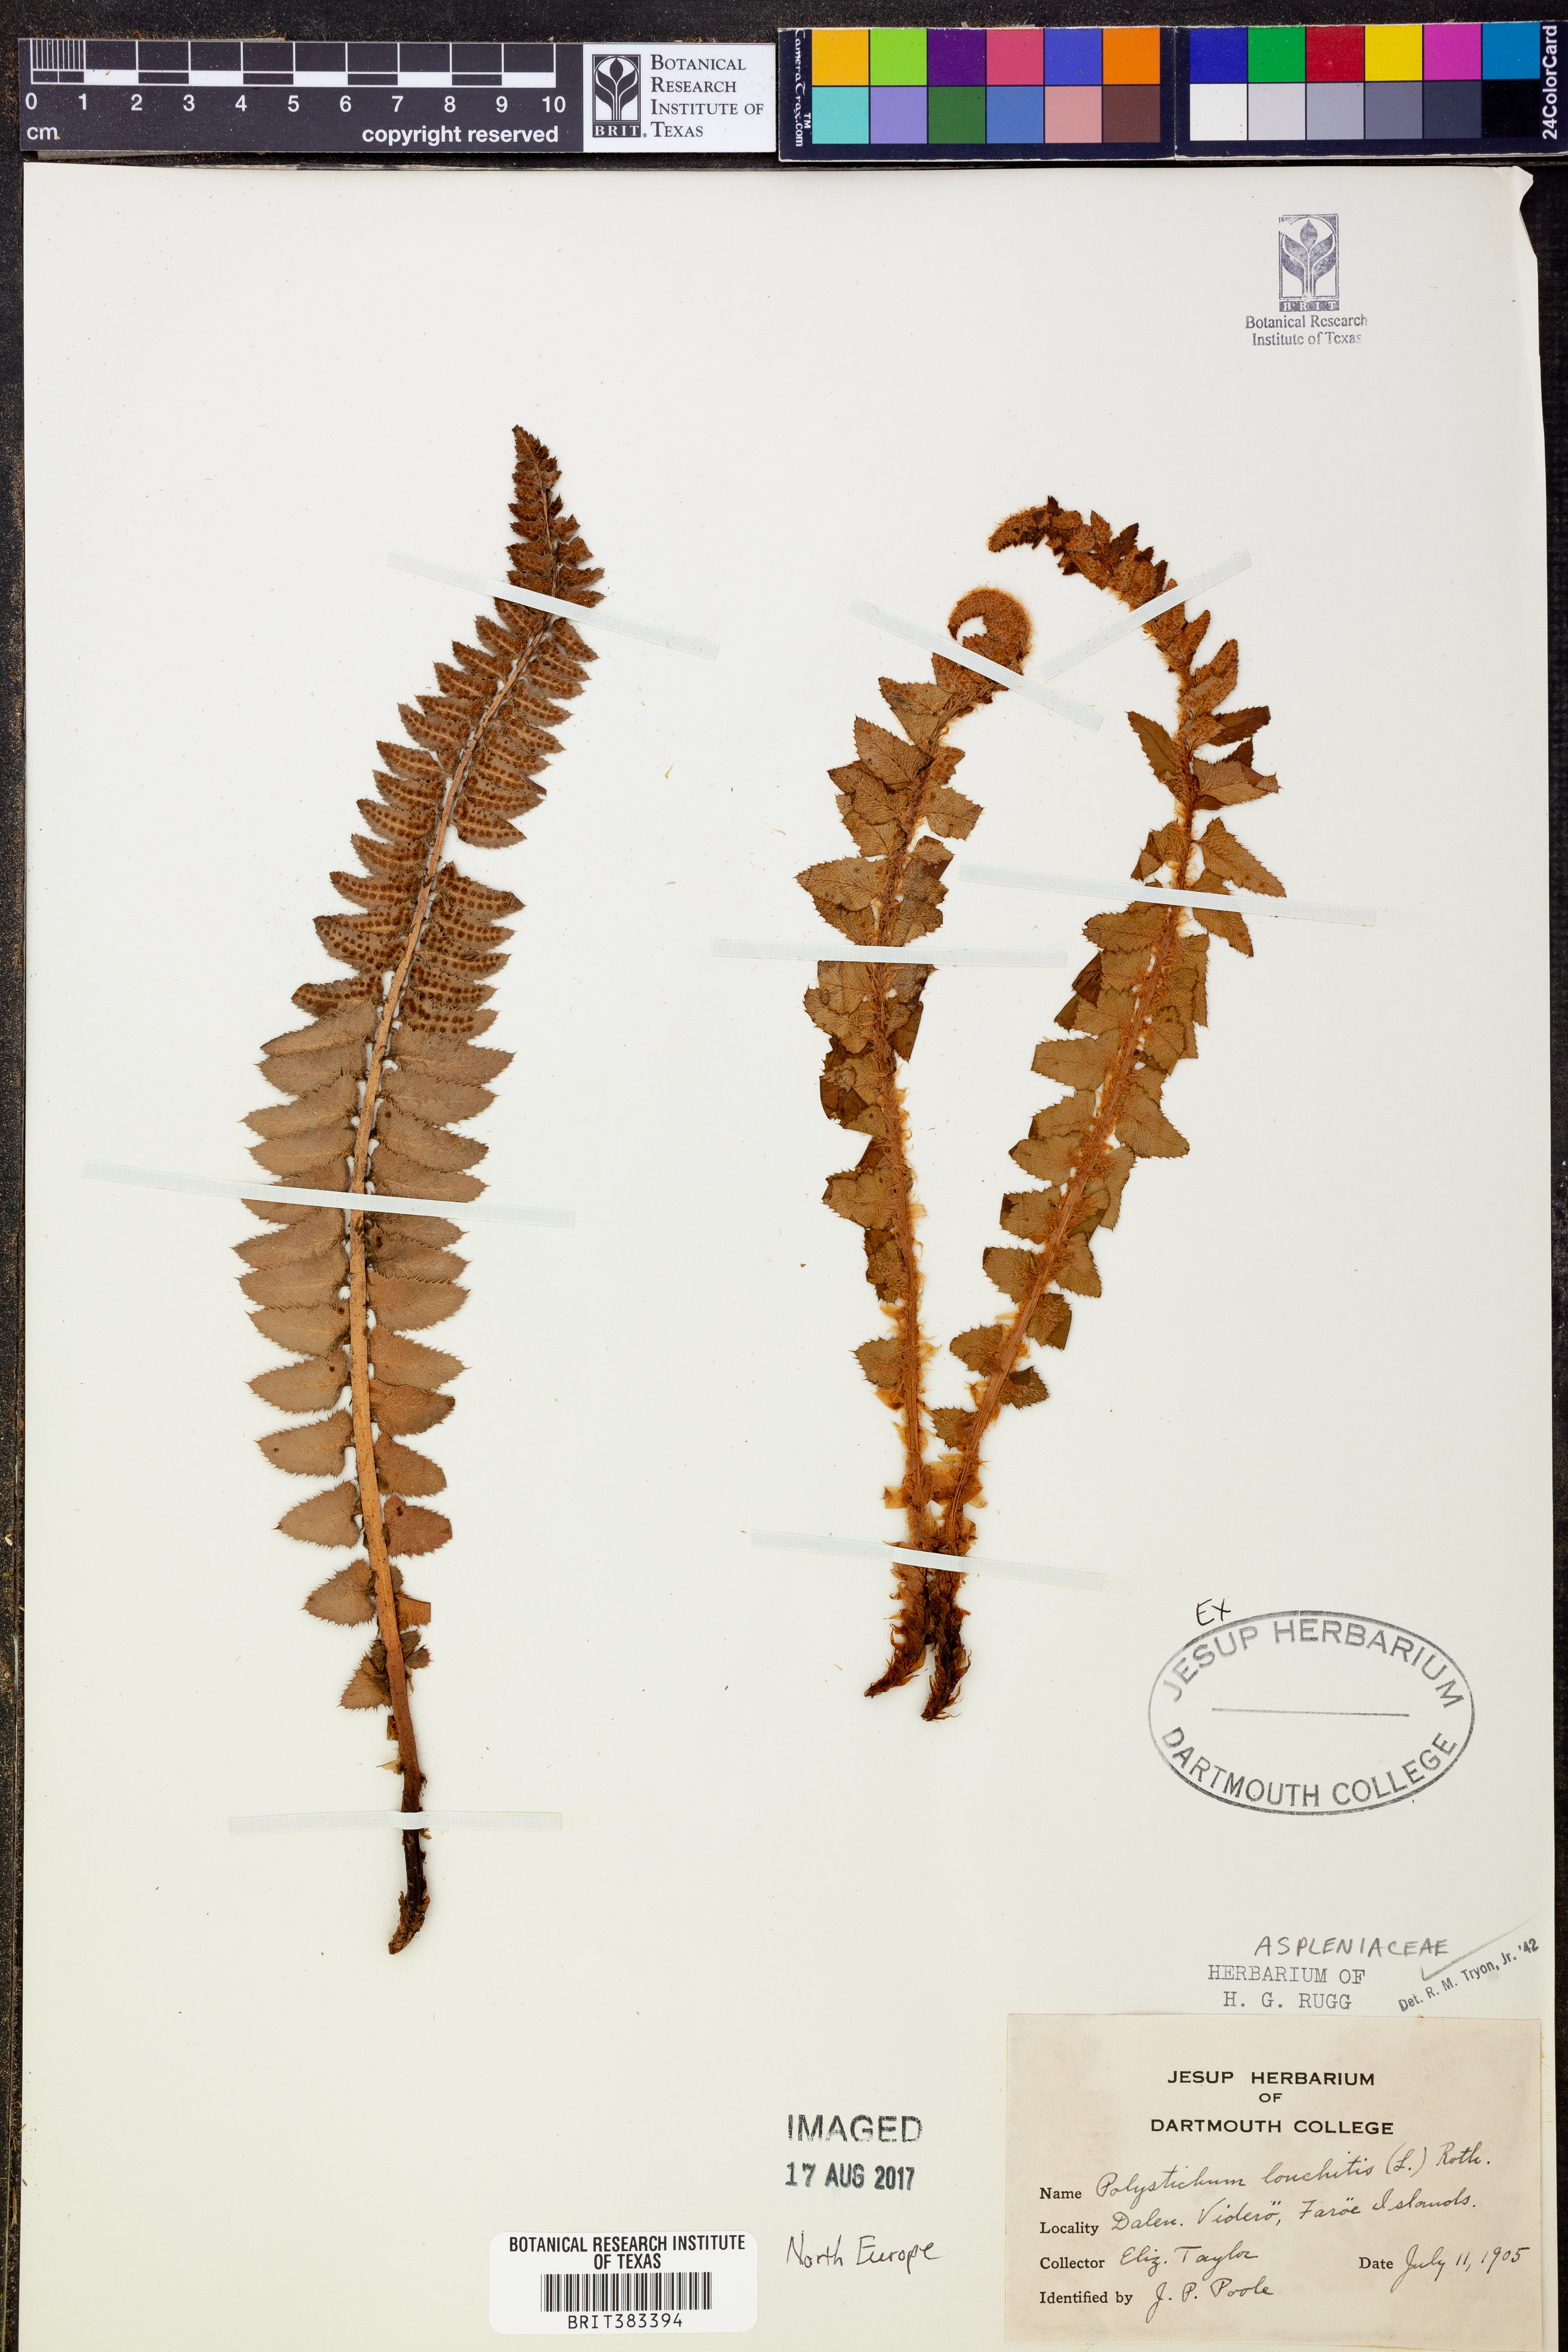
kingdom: Plantae
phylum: Tracheophyta
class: Polypodiopsida
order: Polypodiales
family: Dryopteridaceae
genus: Polystichum
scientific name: Polystichum lonchitis
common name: Holly fern
